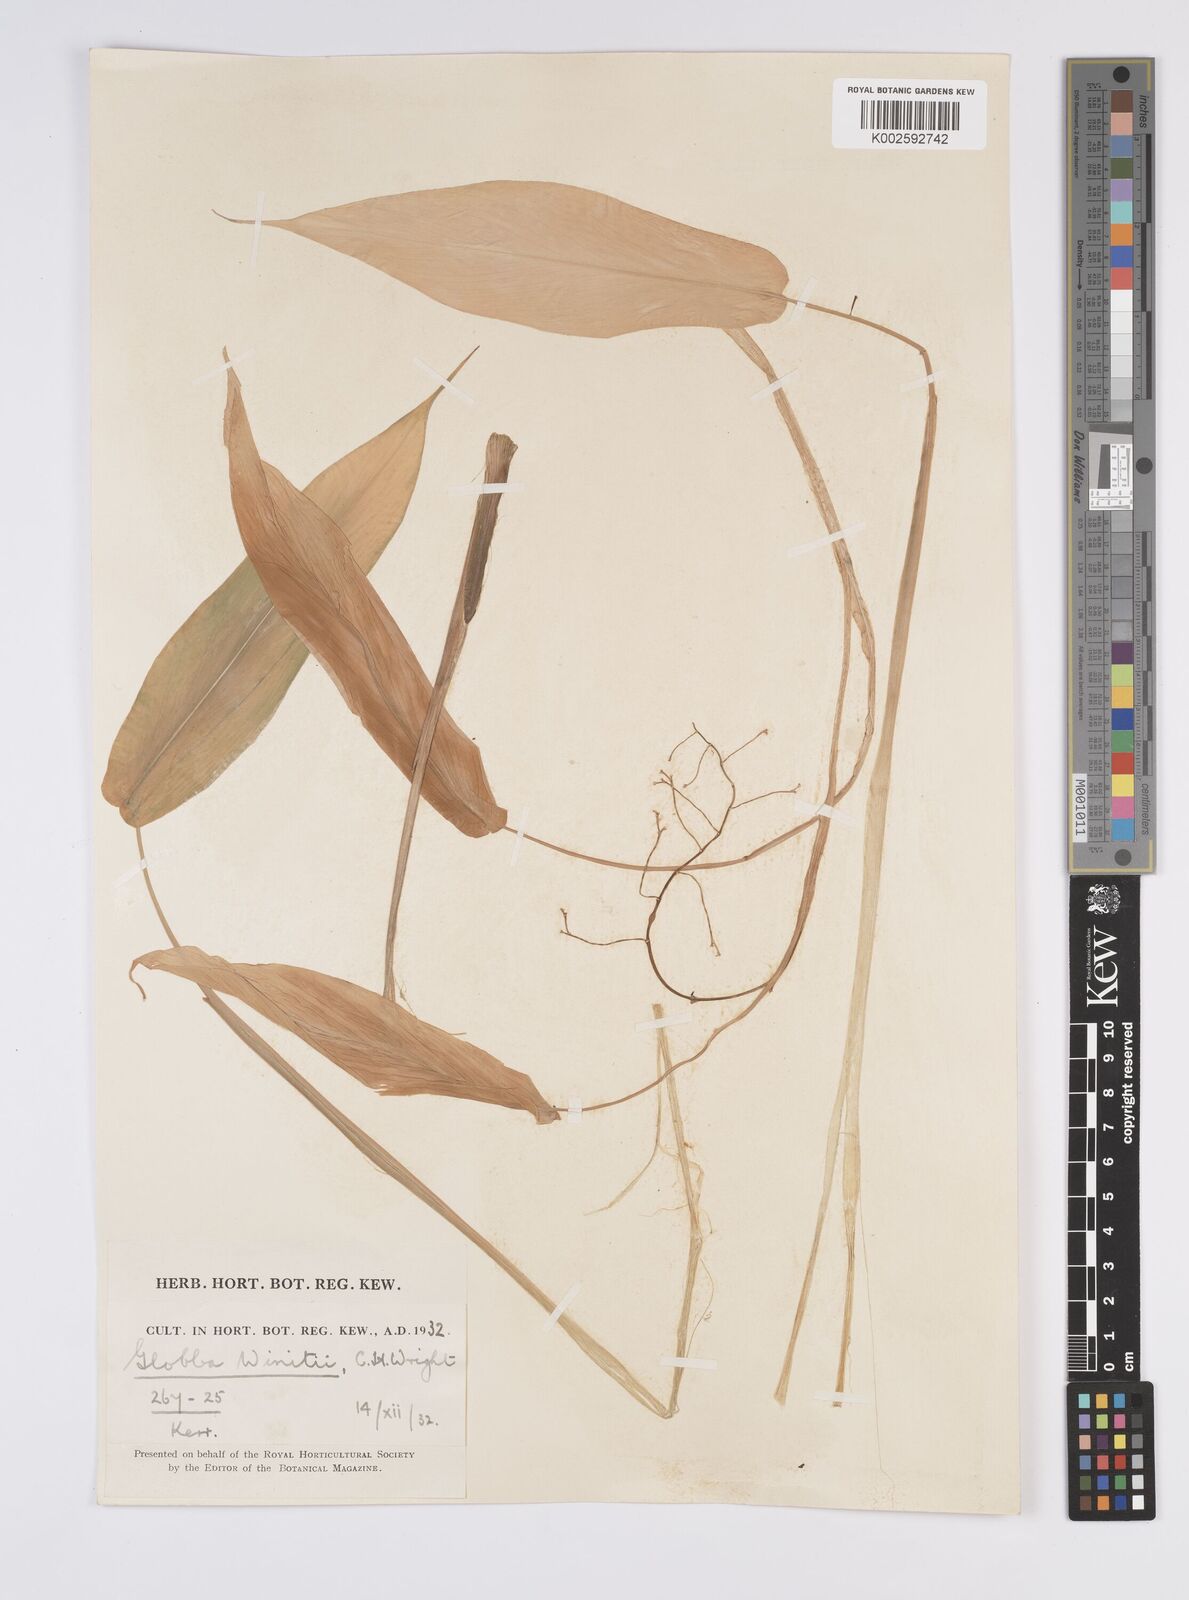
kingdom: Plantae
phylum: Tracheophyta
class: Liliopsida
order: Zingiberales
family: Zingiberaceae
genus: Globba
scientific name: Globba winitii
